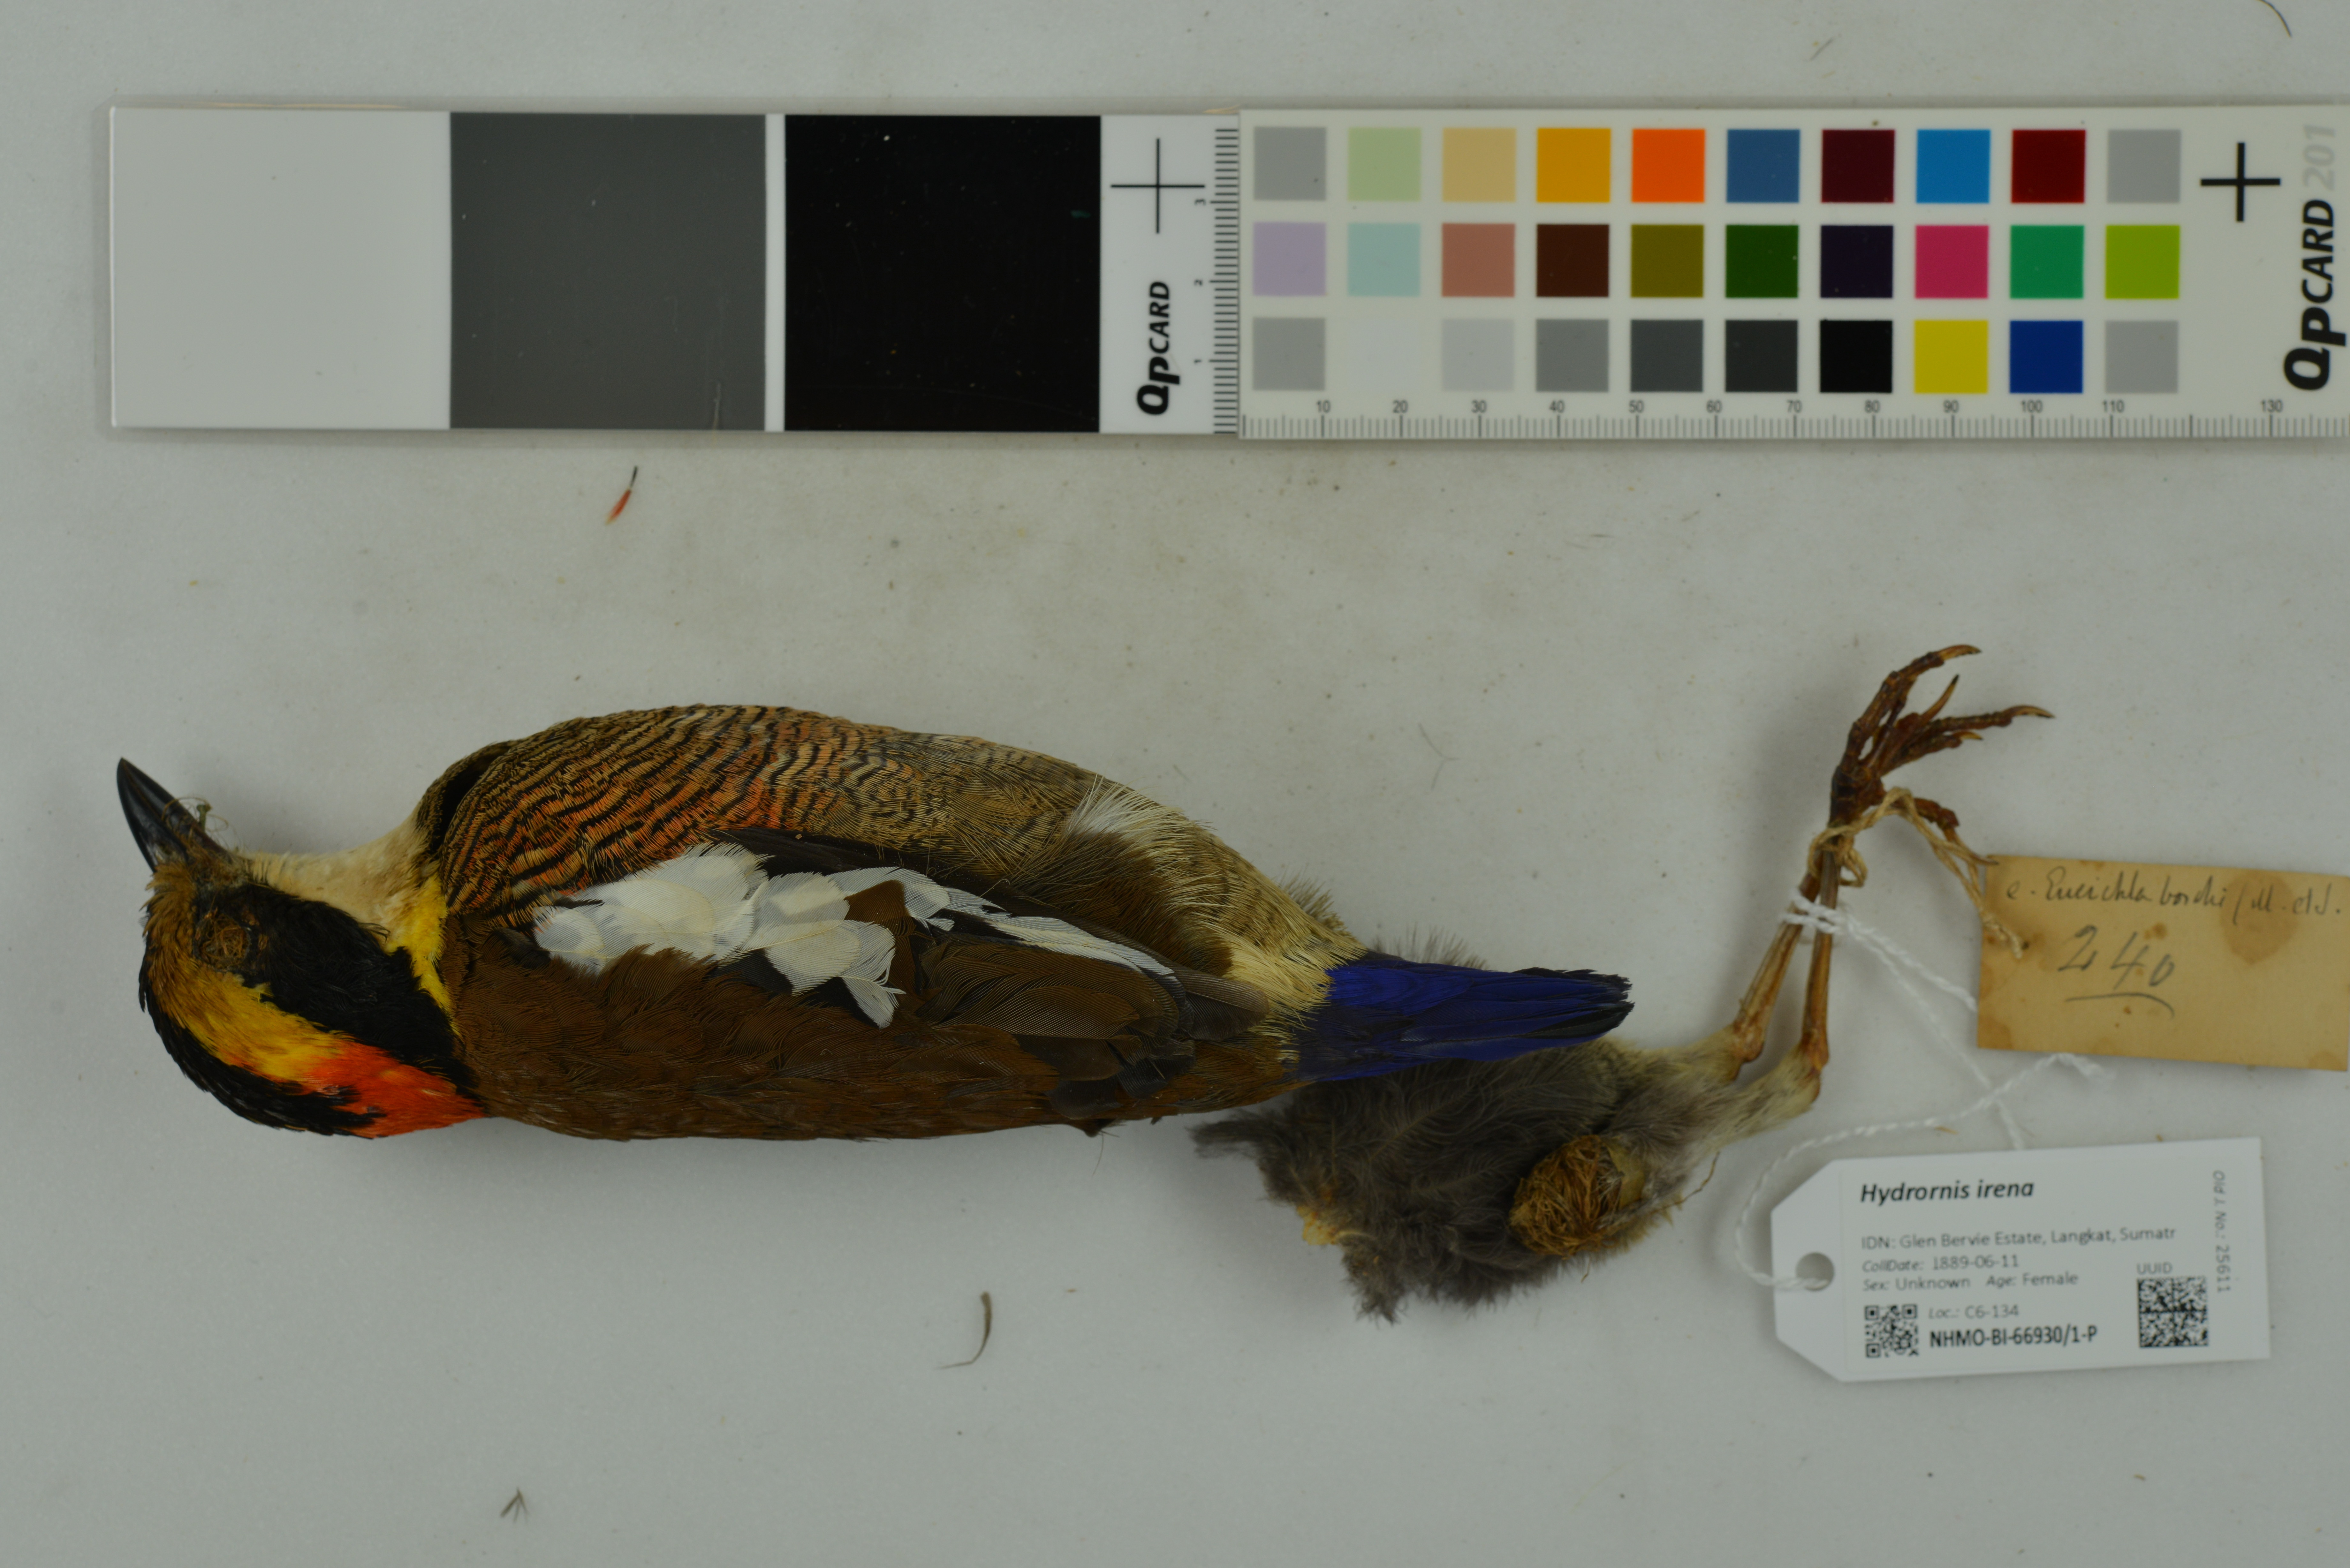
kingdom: Animalia
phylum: Chordata
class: Aves
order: Passeriformes
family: Pittidae
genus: Hydrornis
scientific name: Hydrornis irena
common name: Malayan banded pitta
